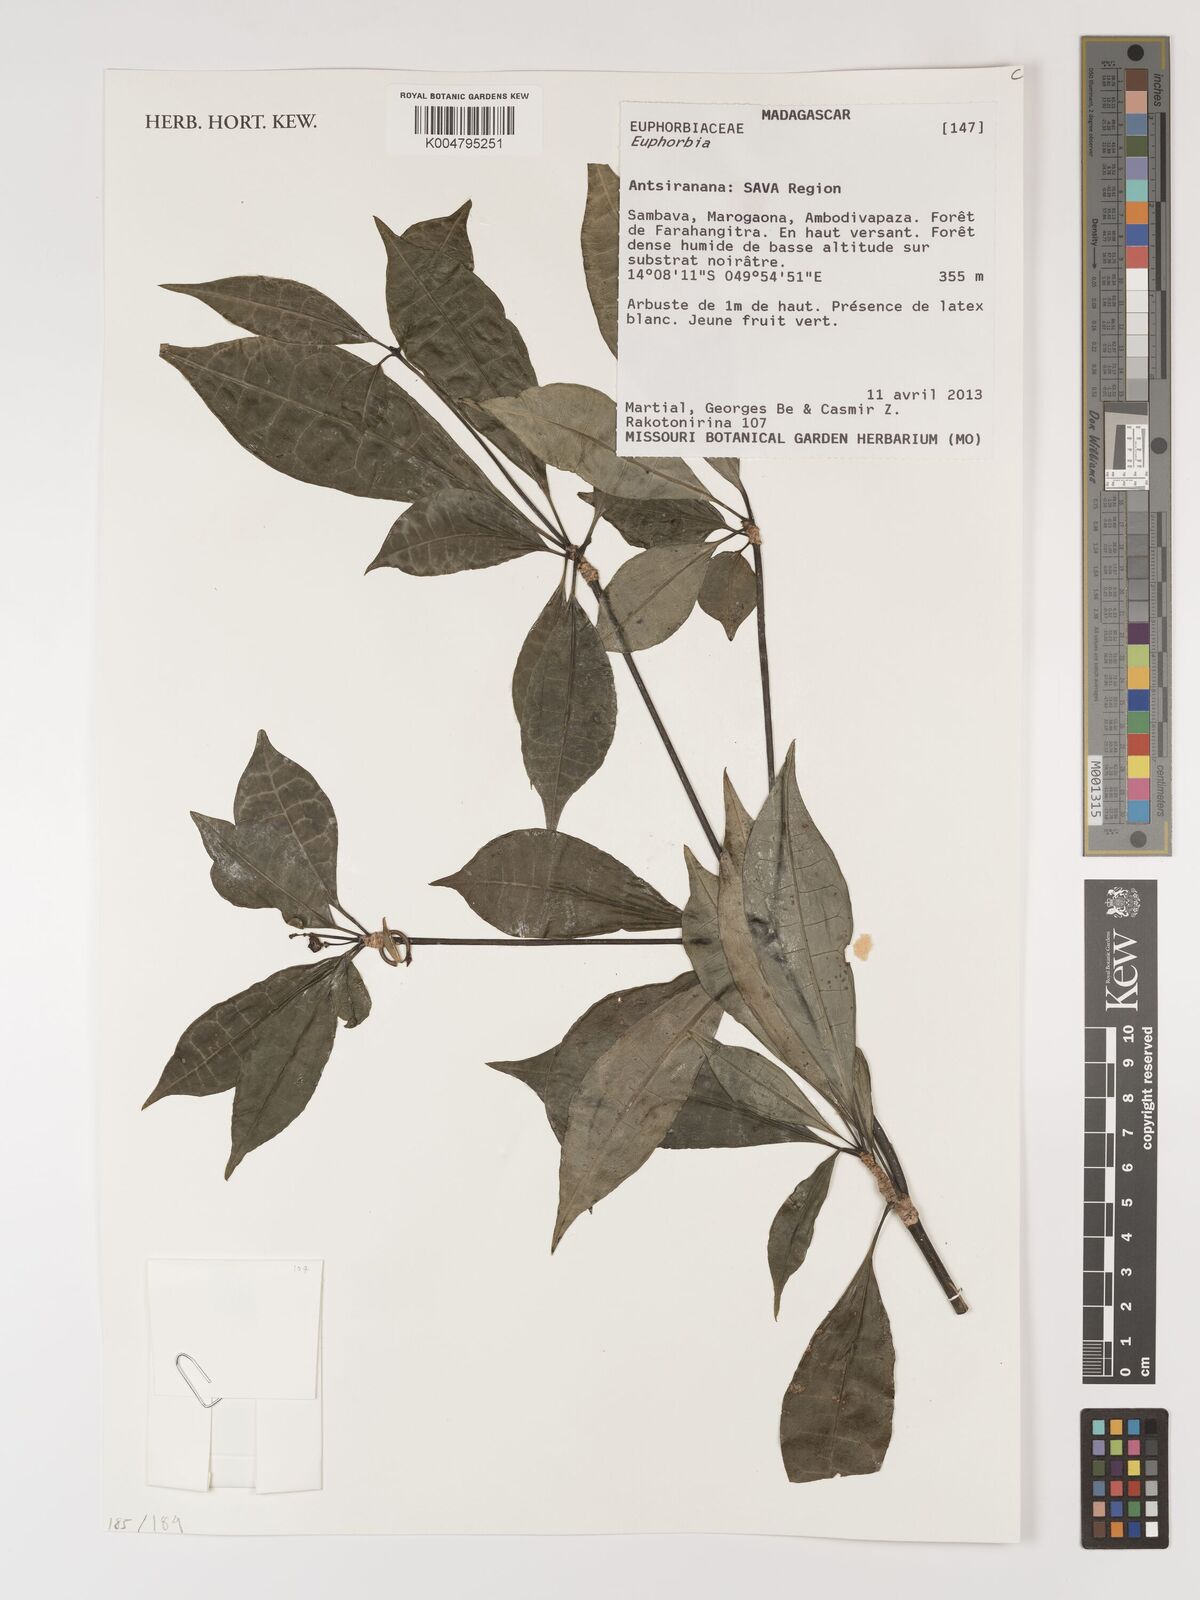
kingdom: Plantae
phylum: Tracheophyta
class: Magnoliopsida
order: Malpighiales
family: Euphorbiaceae
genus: Euphorbia
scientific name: Euphorbia
